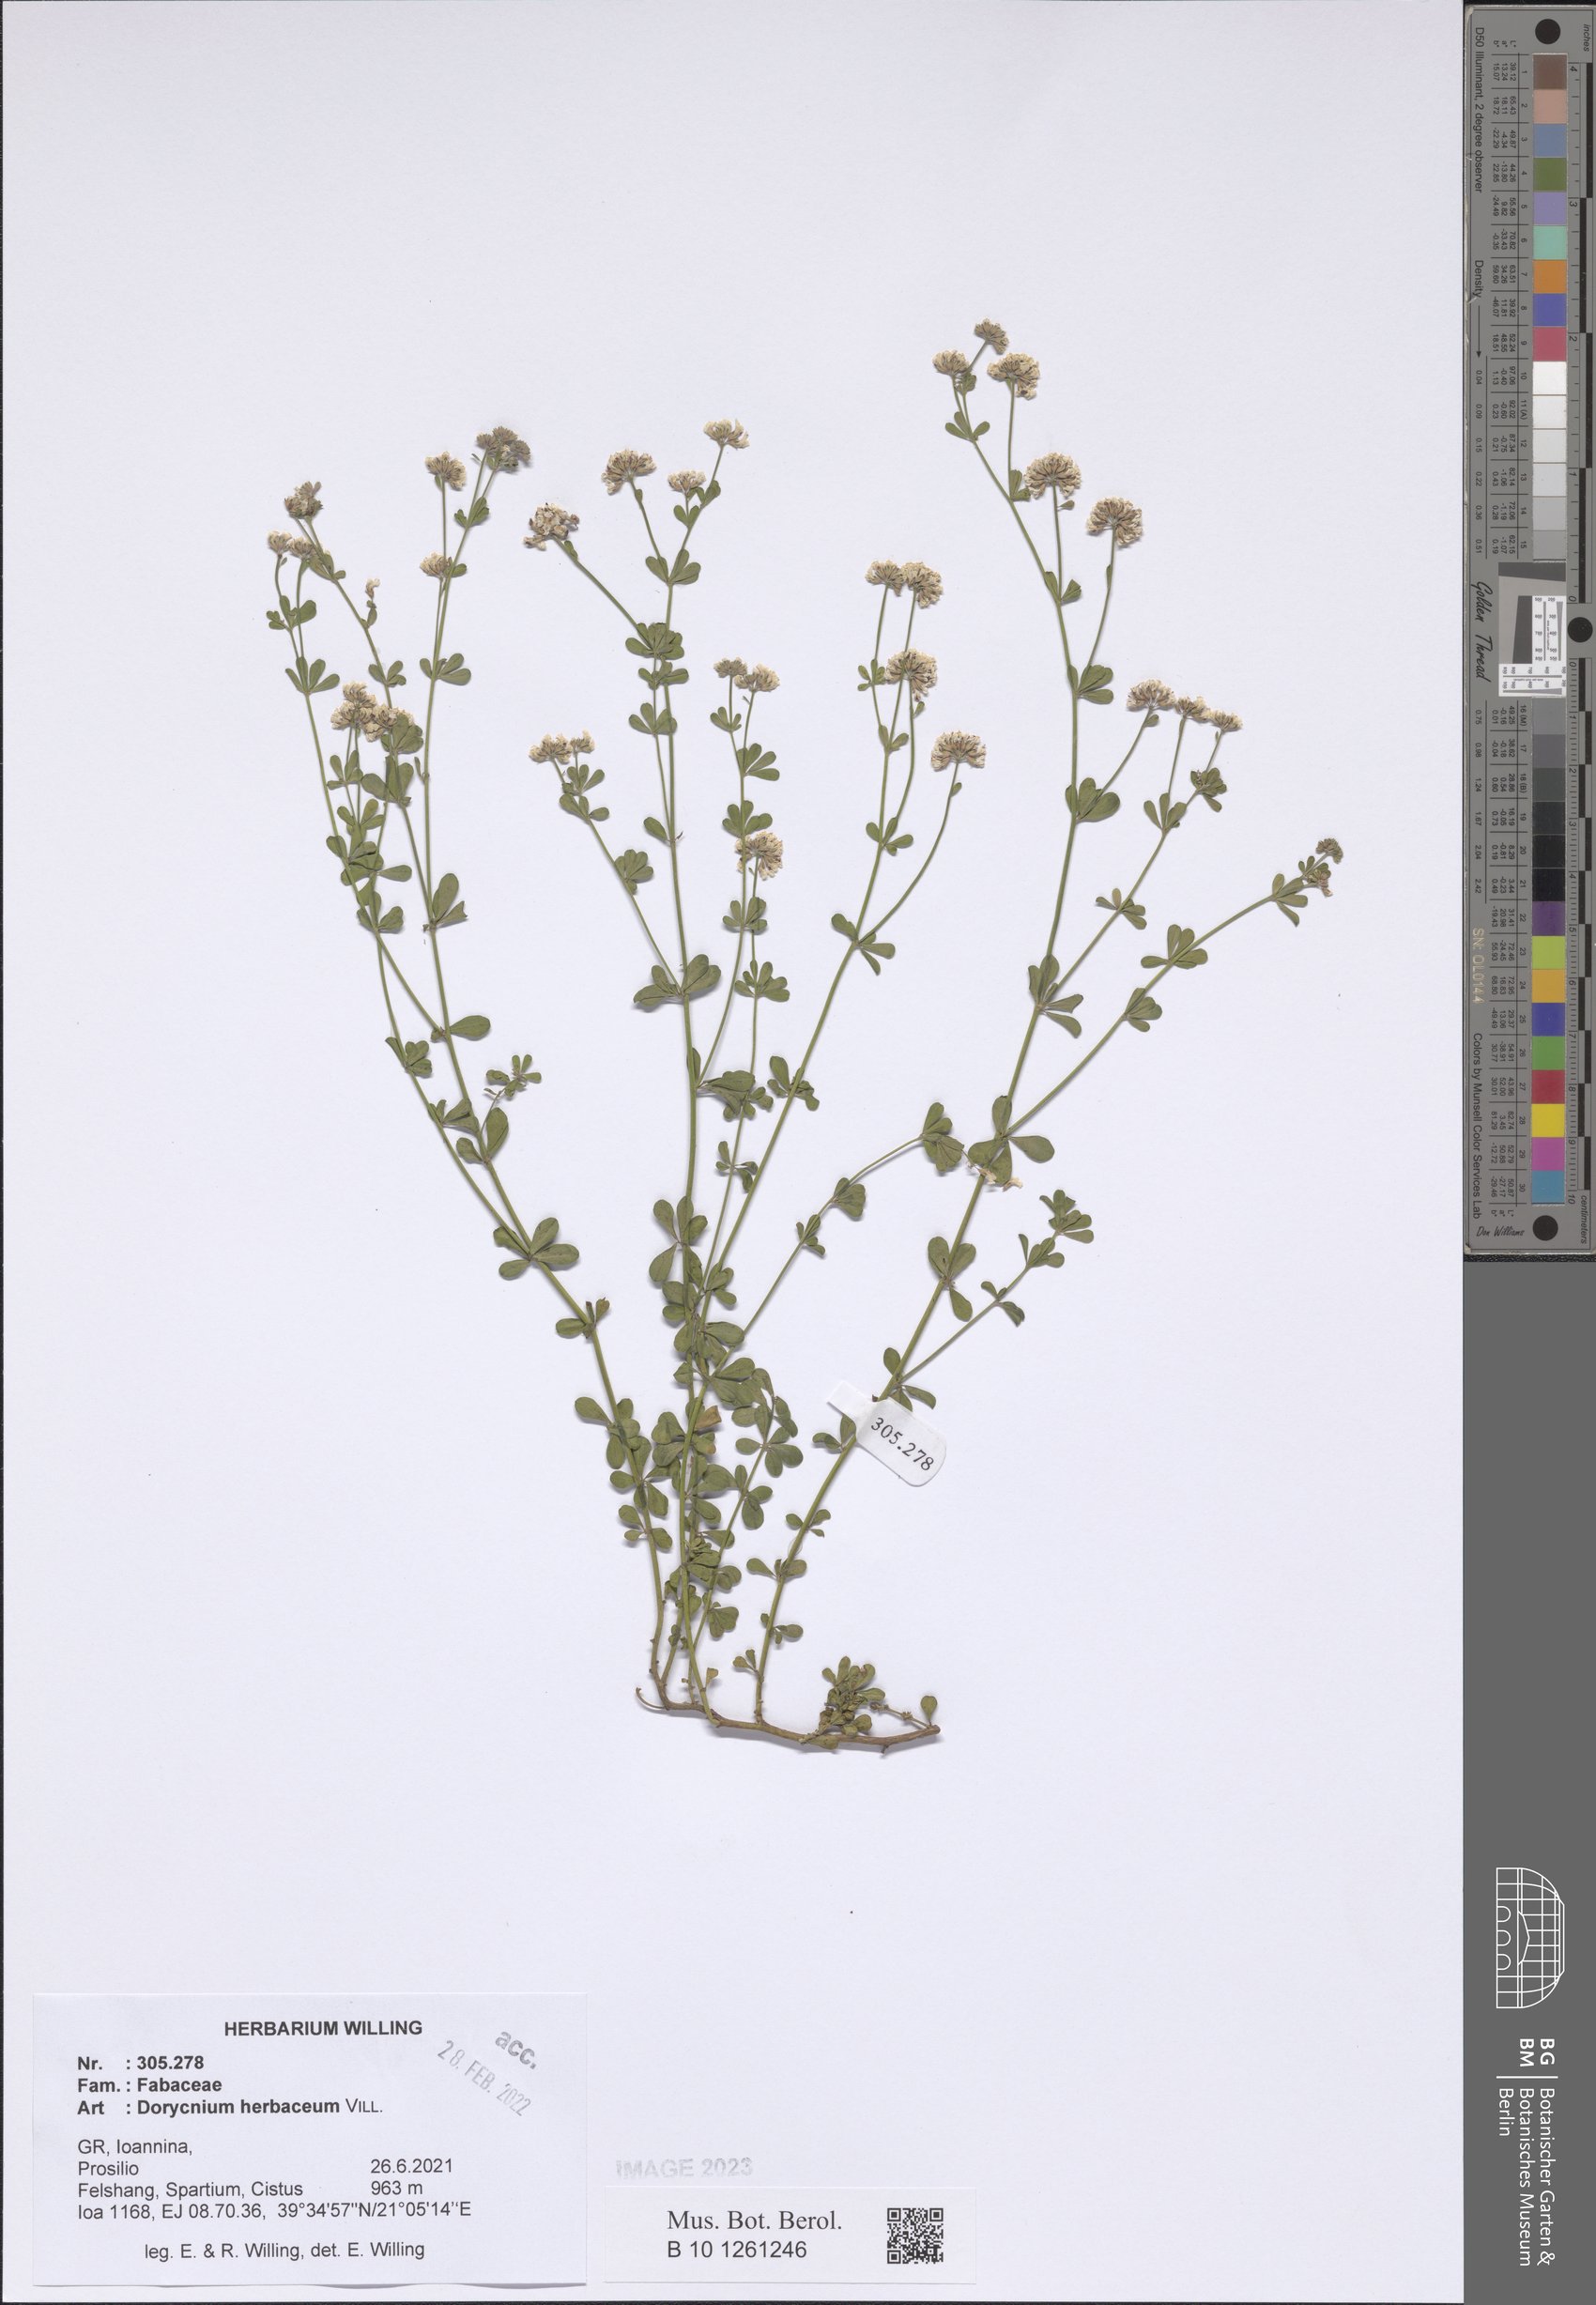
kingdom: Plantae
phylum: Tracheophyta
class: Magnoliopsida
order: Fabales
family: Fabaceae
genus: Lotus
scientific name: Lotus herbaceus
